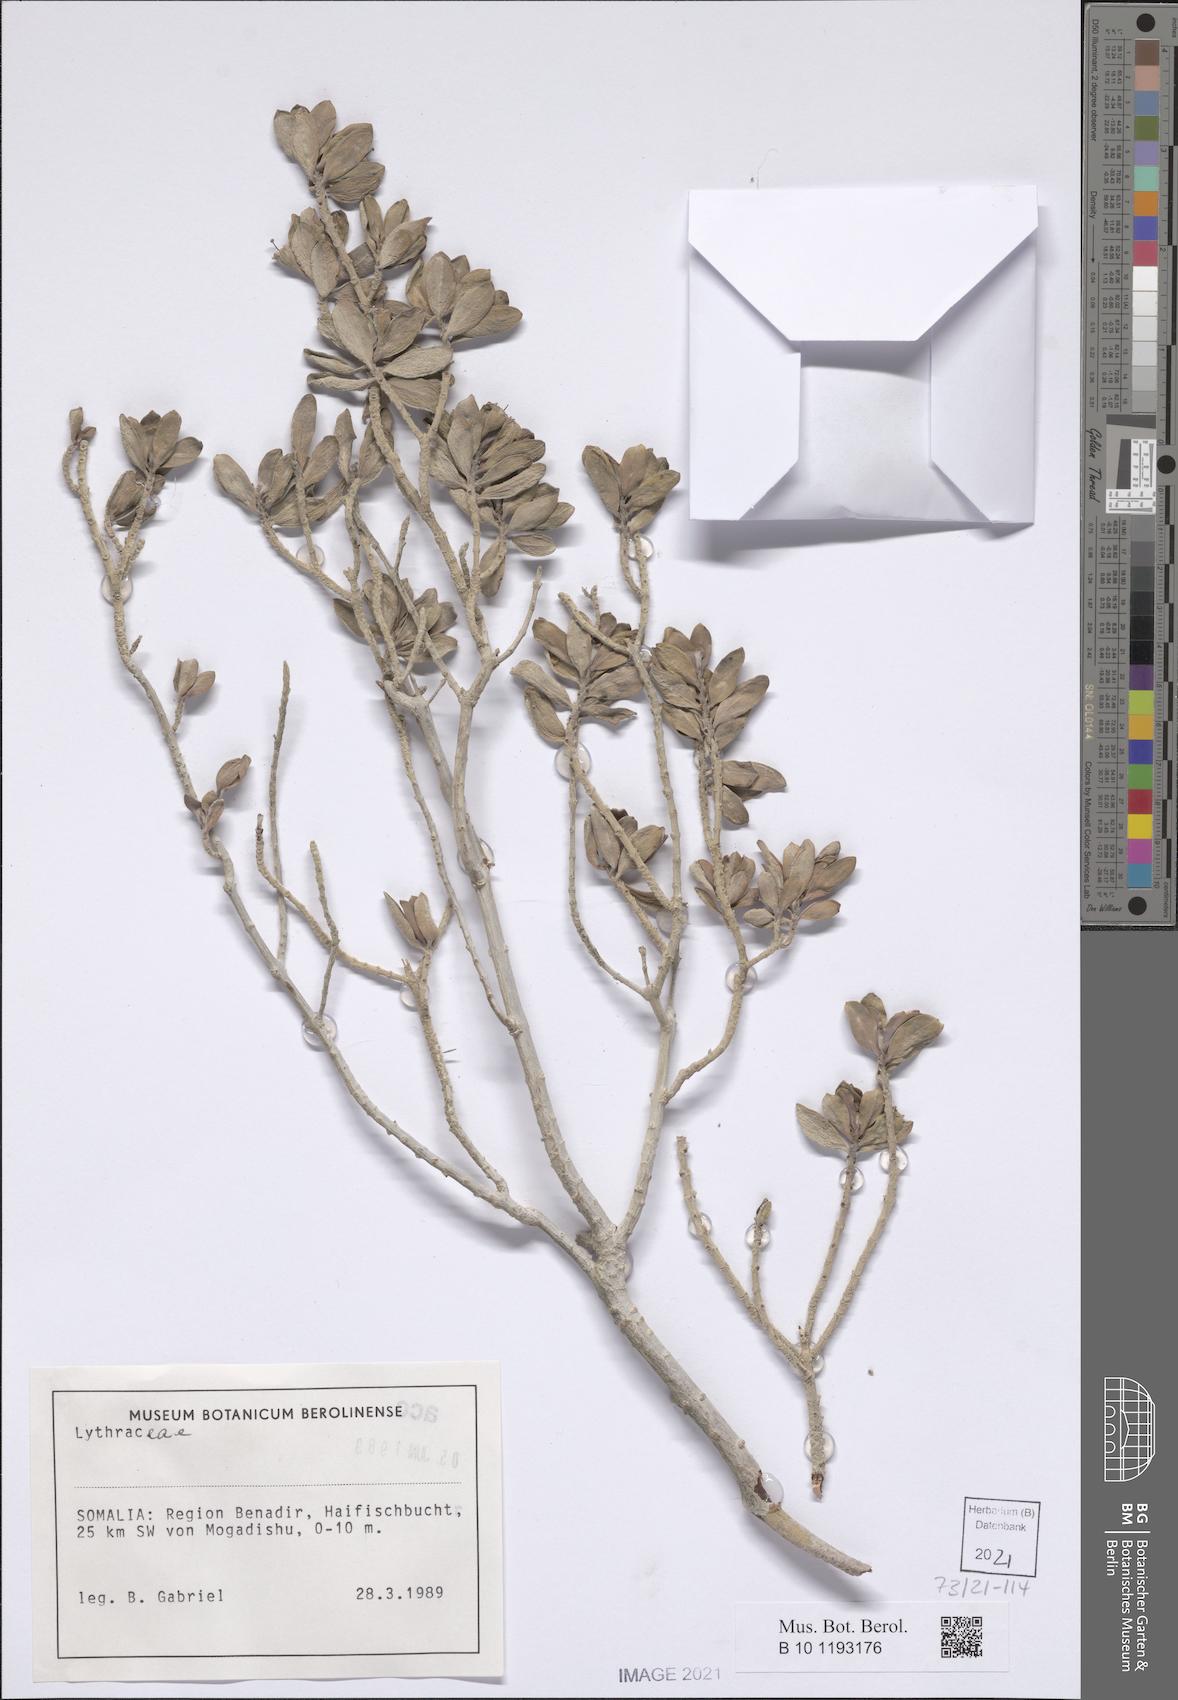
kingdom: Plantae
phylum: Tracheophyta
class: Magnoliopsida
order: Myrtales
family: Lythraceae
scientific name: Lythraceae
